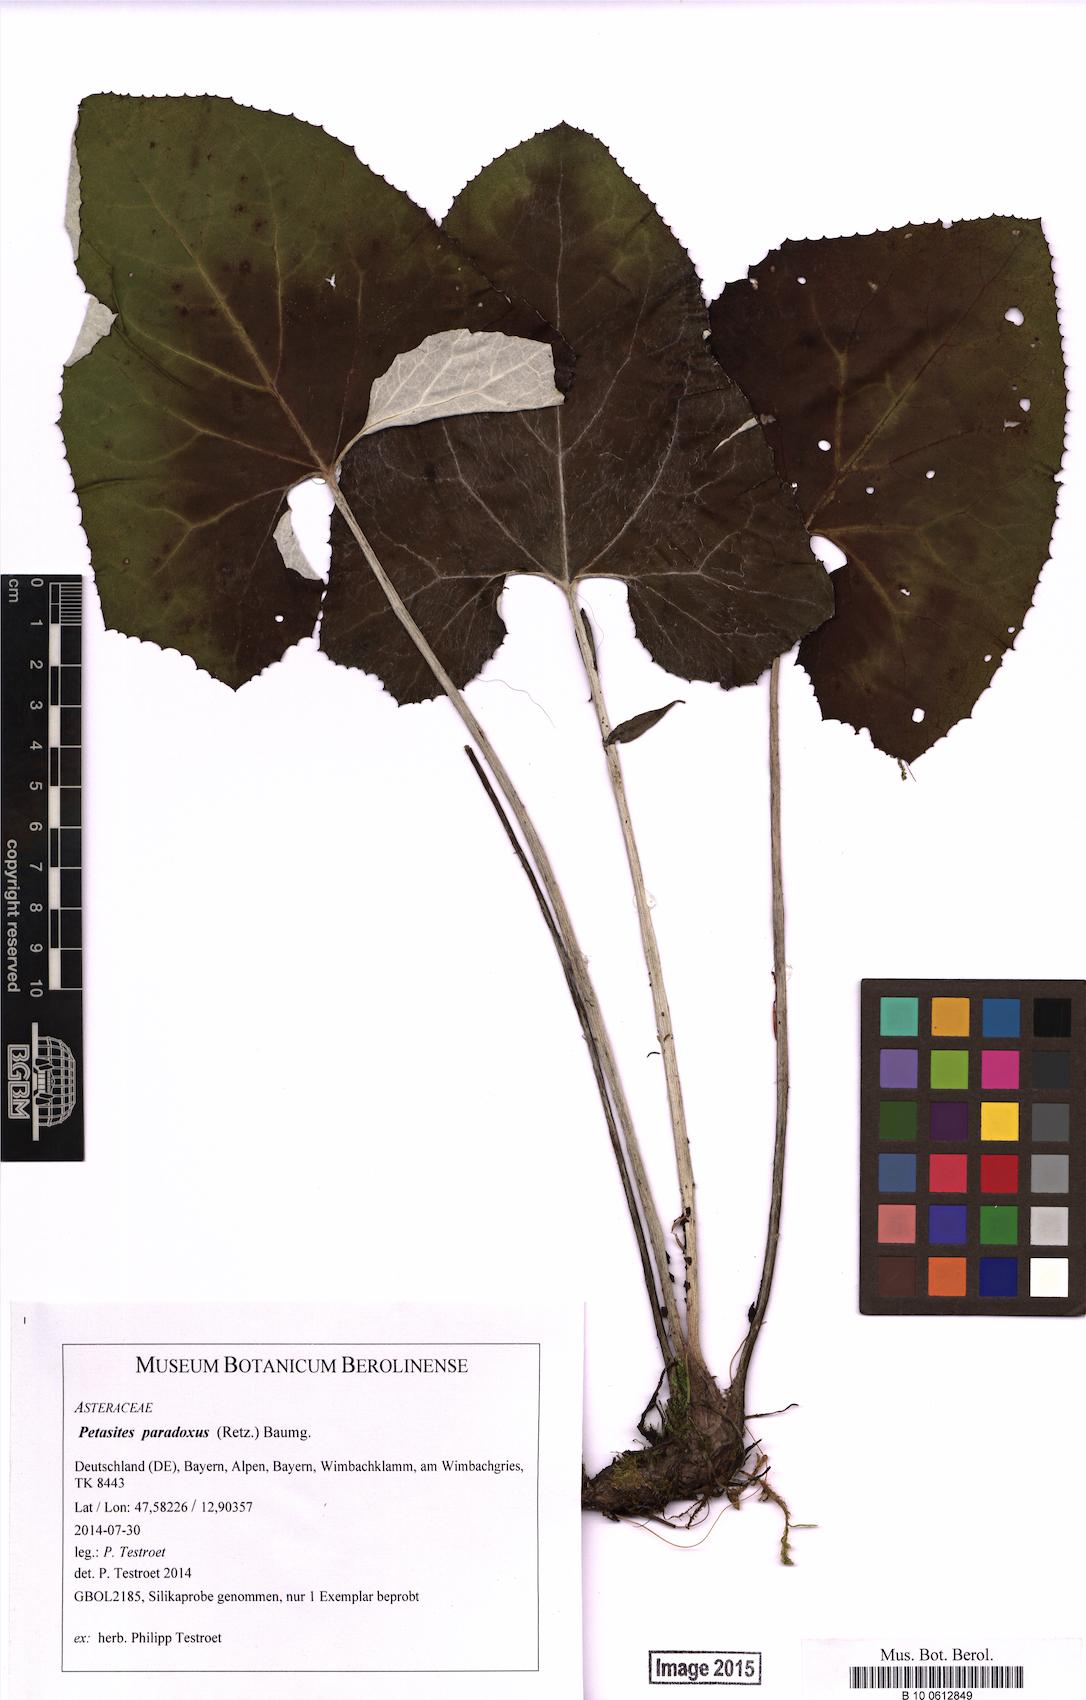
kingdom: Plantae
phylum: Tracheophyta
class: Magnoliopsida
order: Asterales
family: Asteraceae
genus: Petasites
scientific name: Petasites paradoxus
